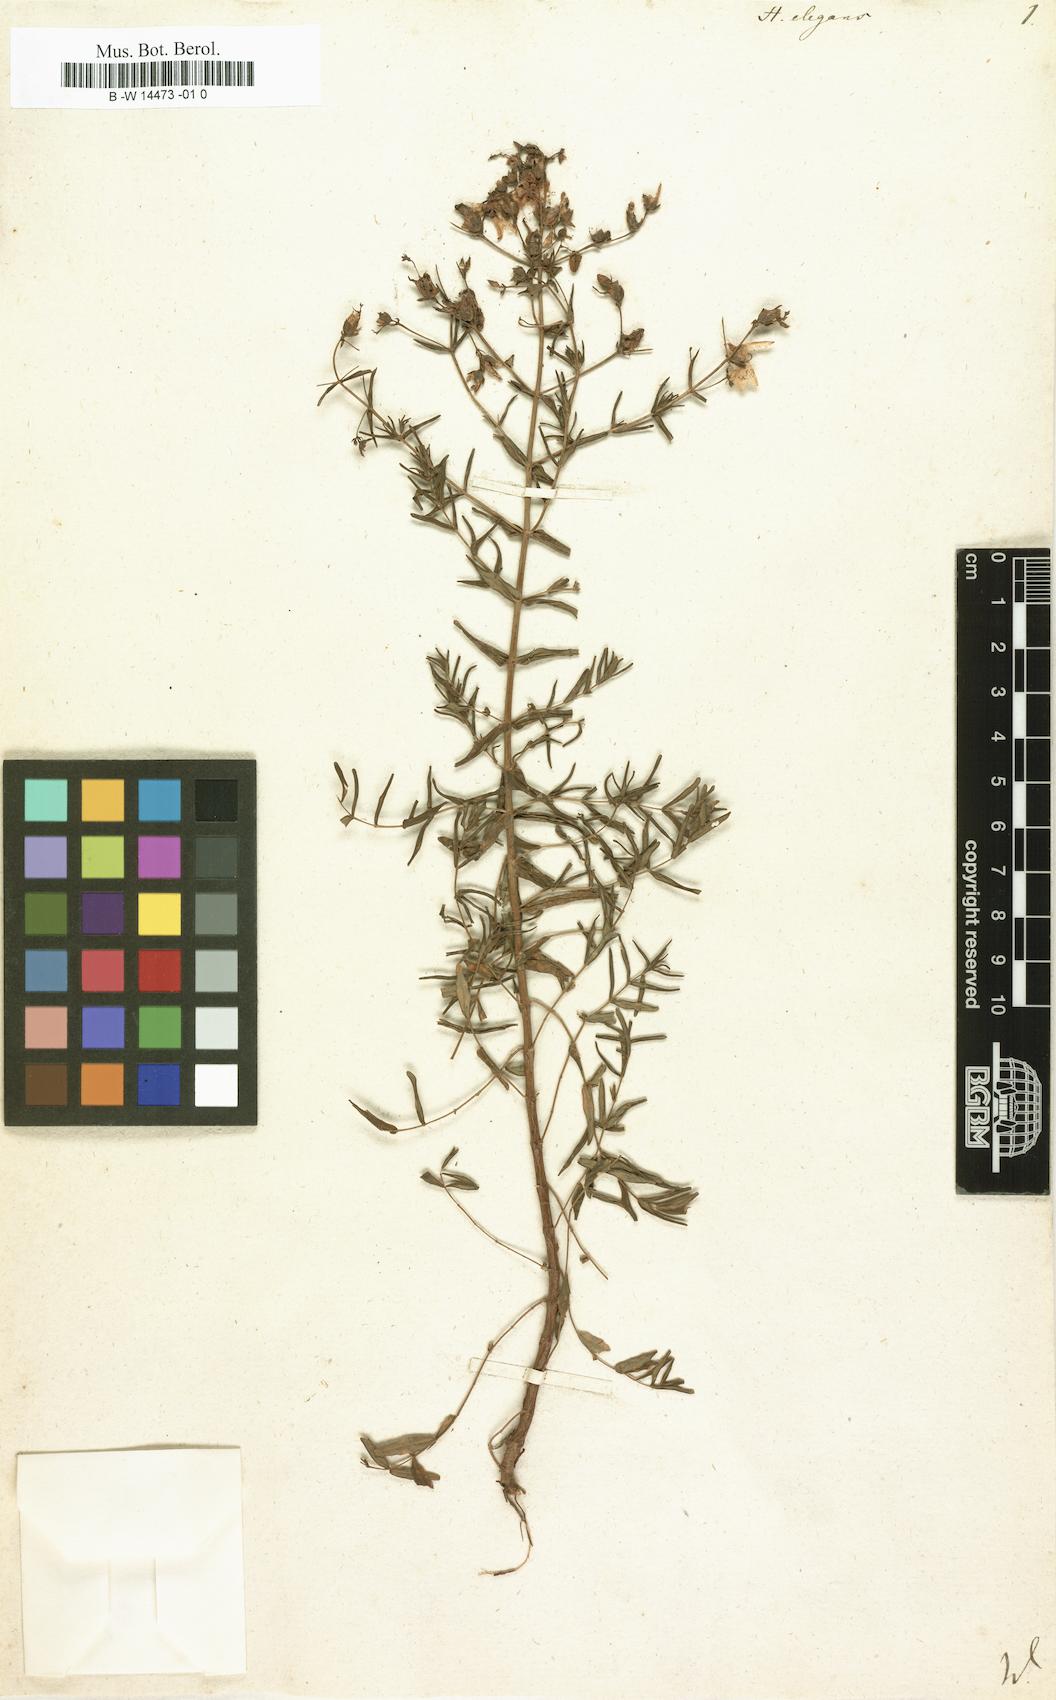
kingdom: Plantae
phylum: Tracheophyta
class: Magnoliopsida
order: Malpighiales
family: Hypericaceae
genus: Hypericum
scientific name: Hypericum elegans
